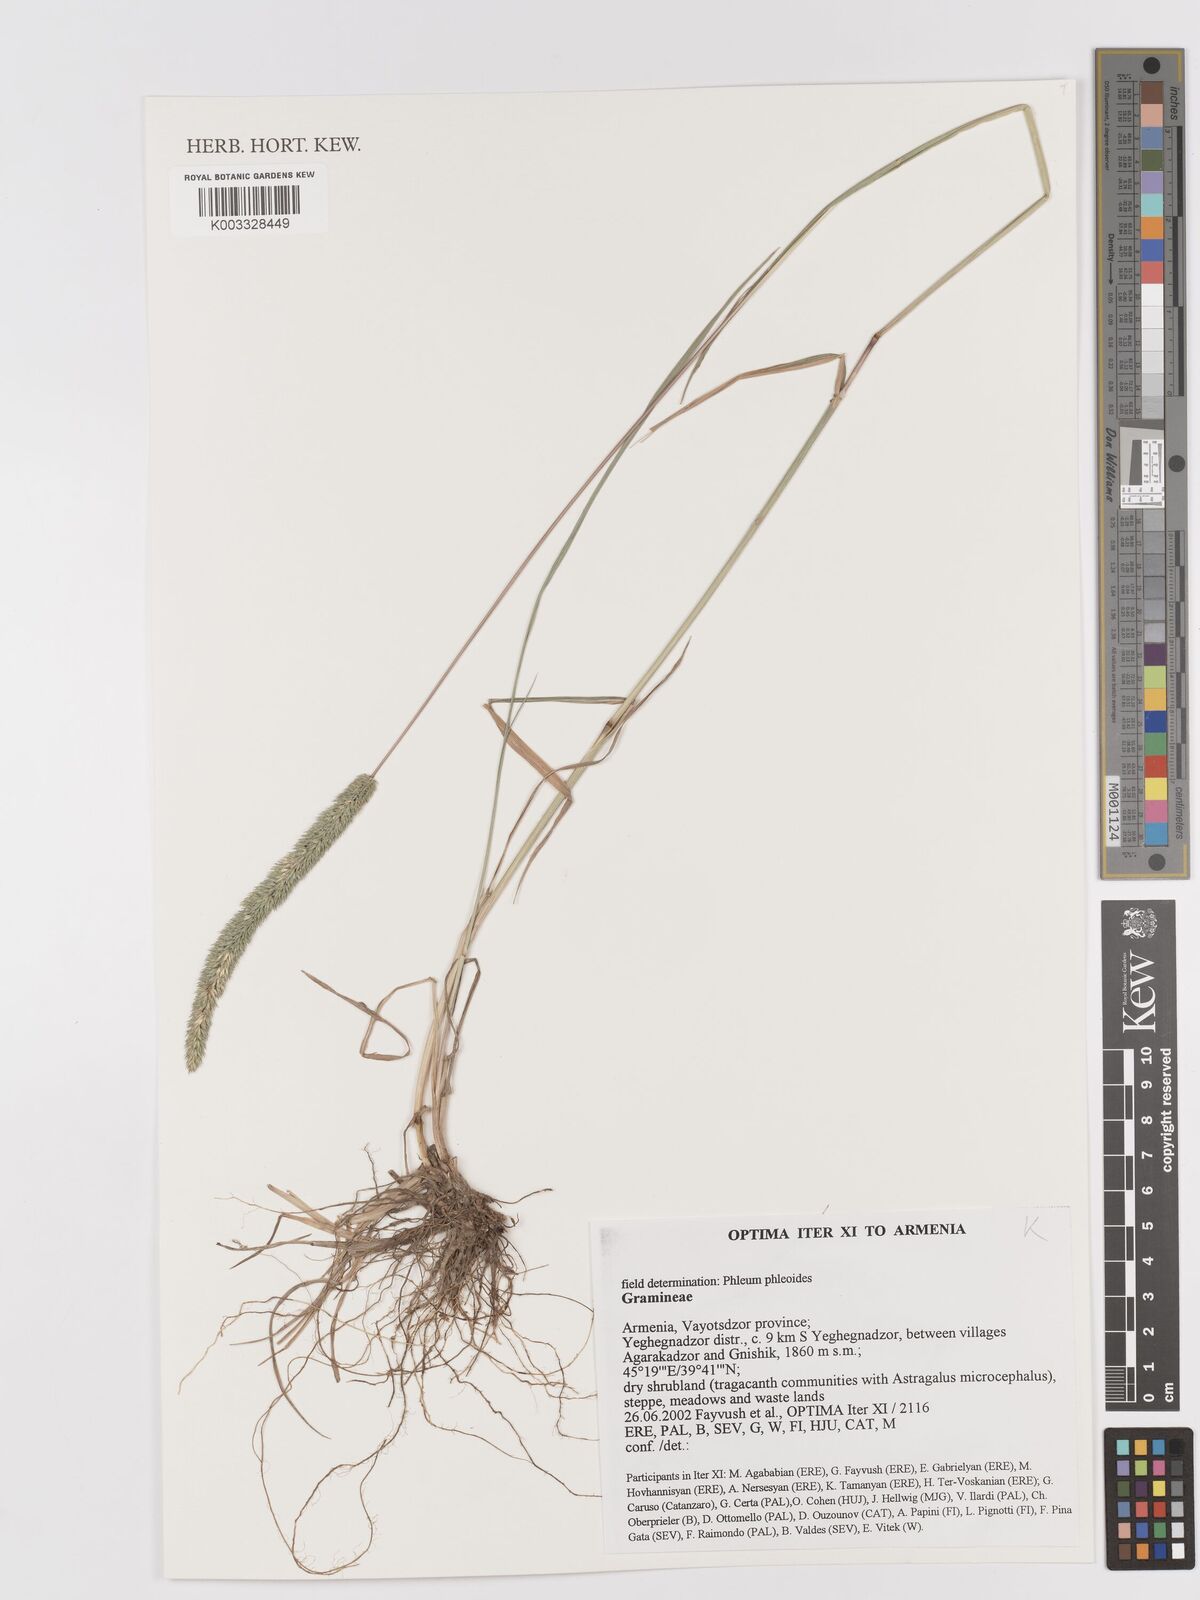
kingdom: Plantae
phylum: Tracheophyta
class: Liliopsida
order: Poales
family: Poaceae
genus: Phleum
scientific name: Phleum phleoides
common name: Purple-stem cat's-tail
